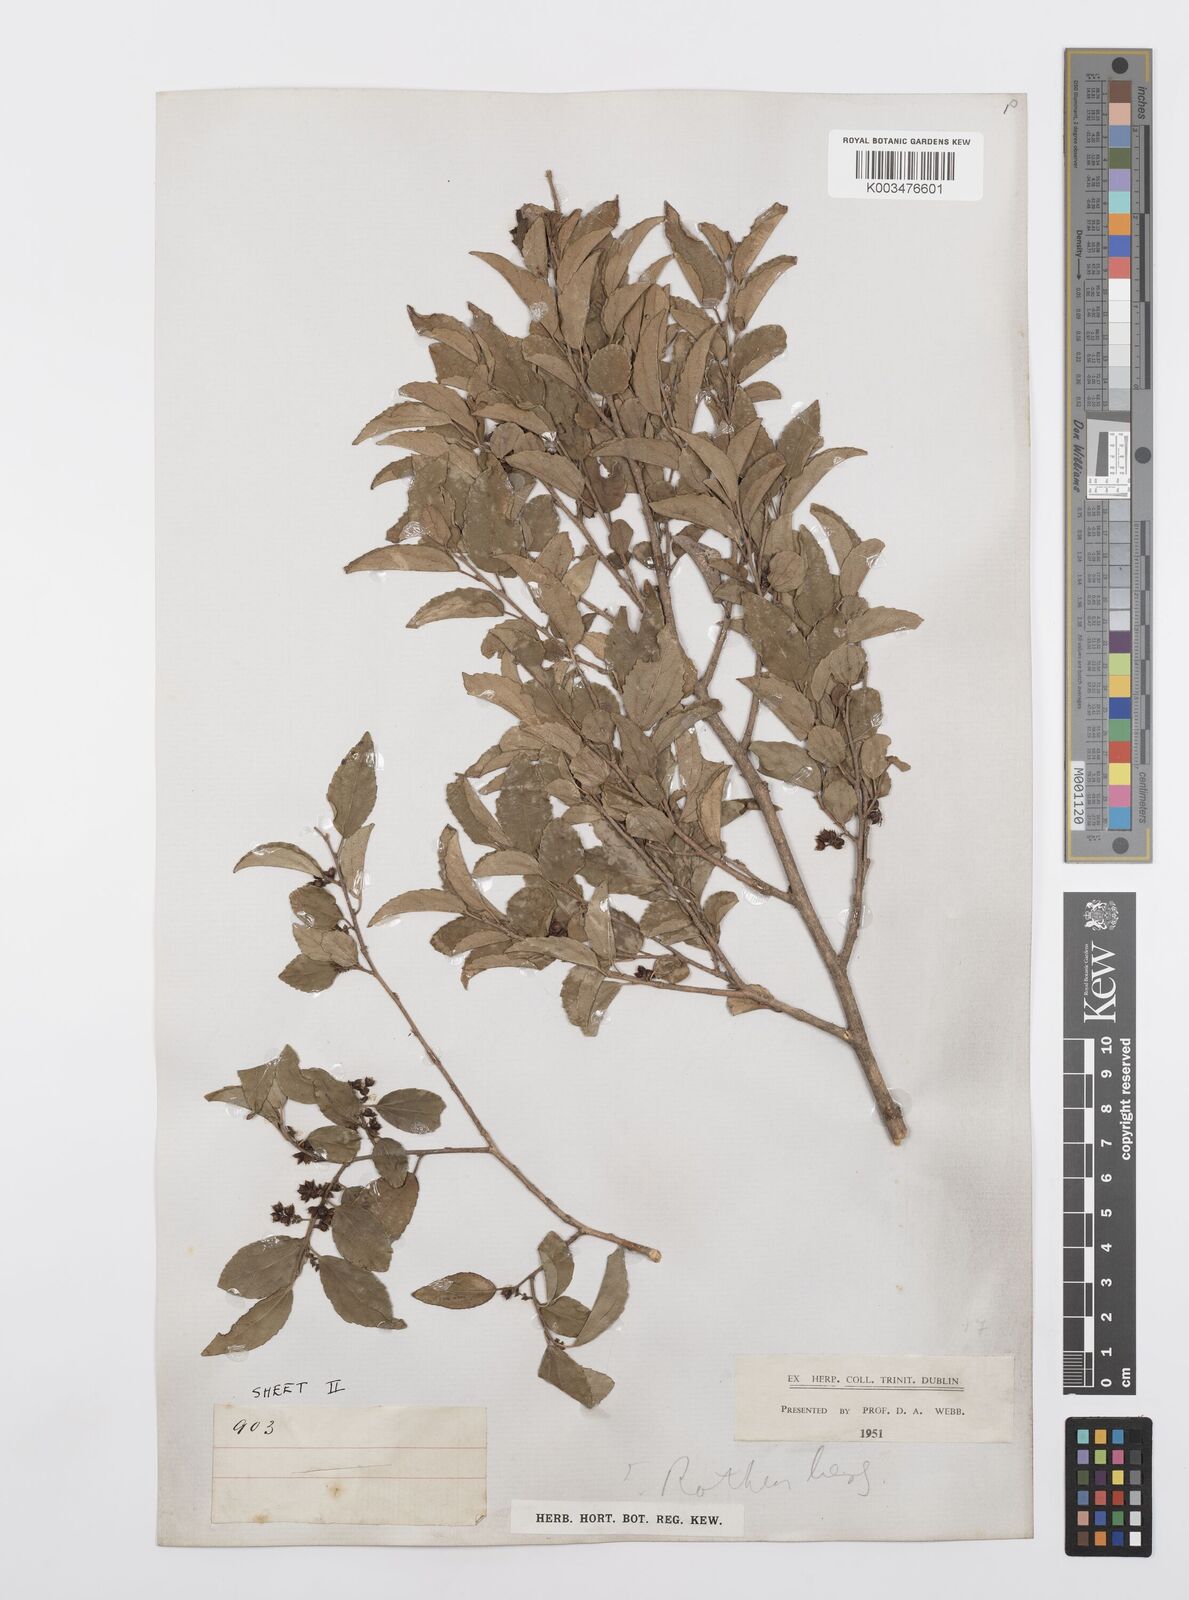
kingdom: Plantae
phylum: Tracheophyta
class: Magnoliopsida
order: Malpighiales
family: Salicaceae
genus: Trimeria
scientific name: Trimeria trinervis
